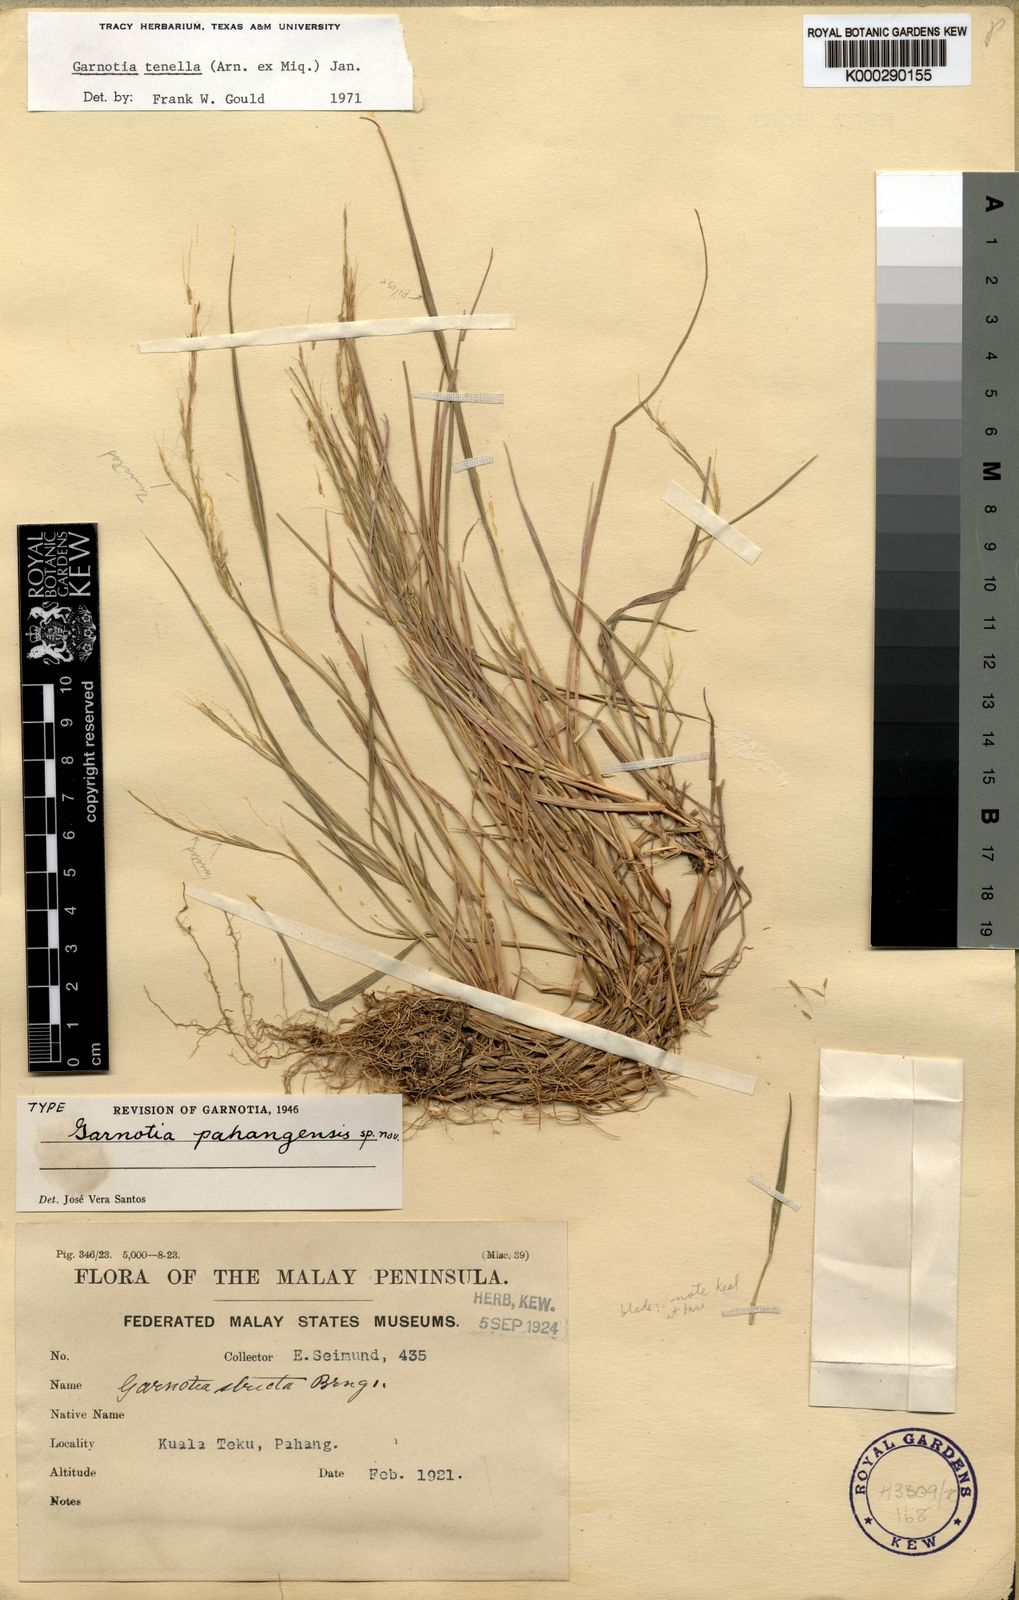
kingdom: Plantae
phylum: Tracheophyta
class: Liliopsida
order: Poales
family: Poaceae
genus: Garnotia
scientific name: Garnotia tenella
